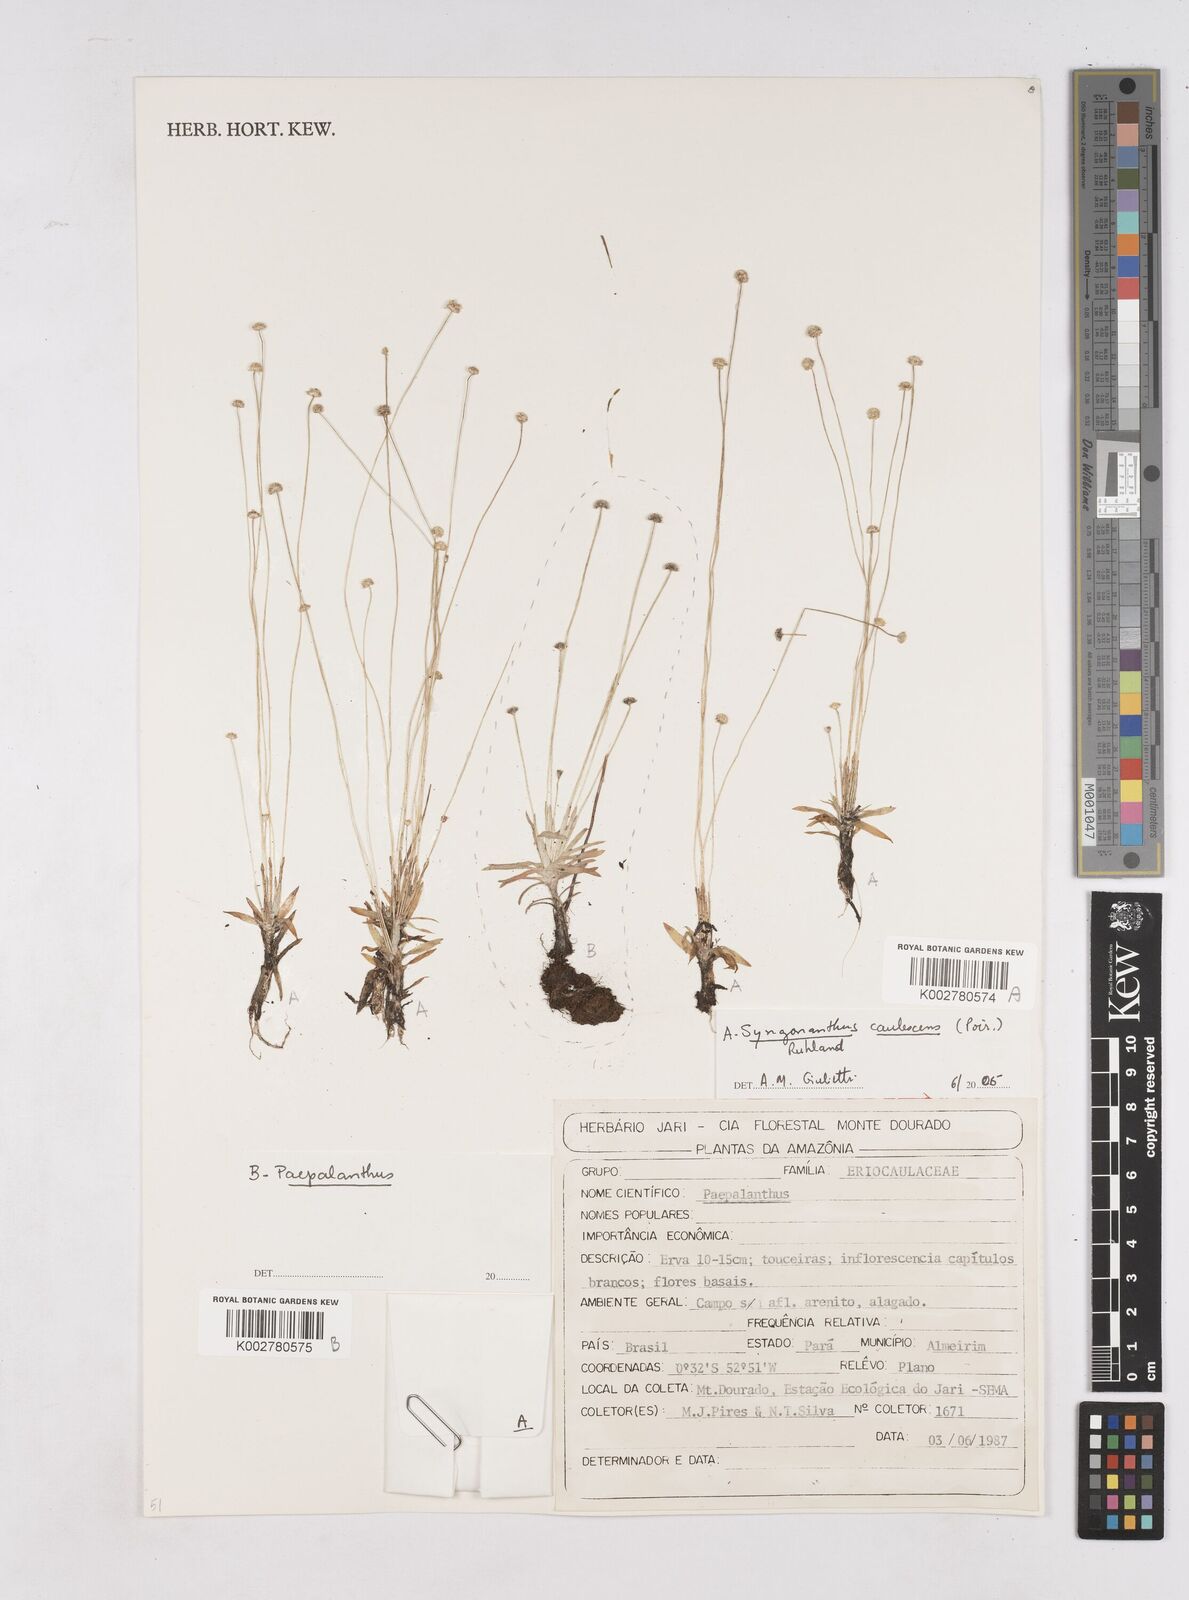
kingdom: Plantae
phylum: Tracheophyta
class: Liliopsida
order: Poales
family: Eriocaulaceae
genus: Paepalanthus
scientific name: Paepalanthus polytrichoides
